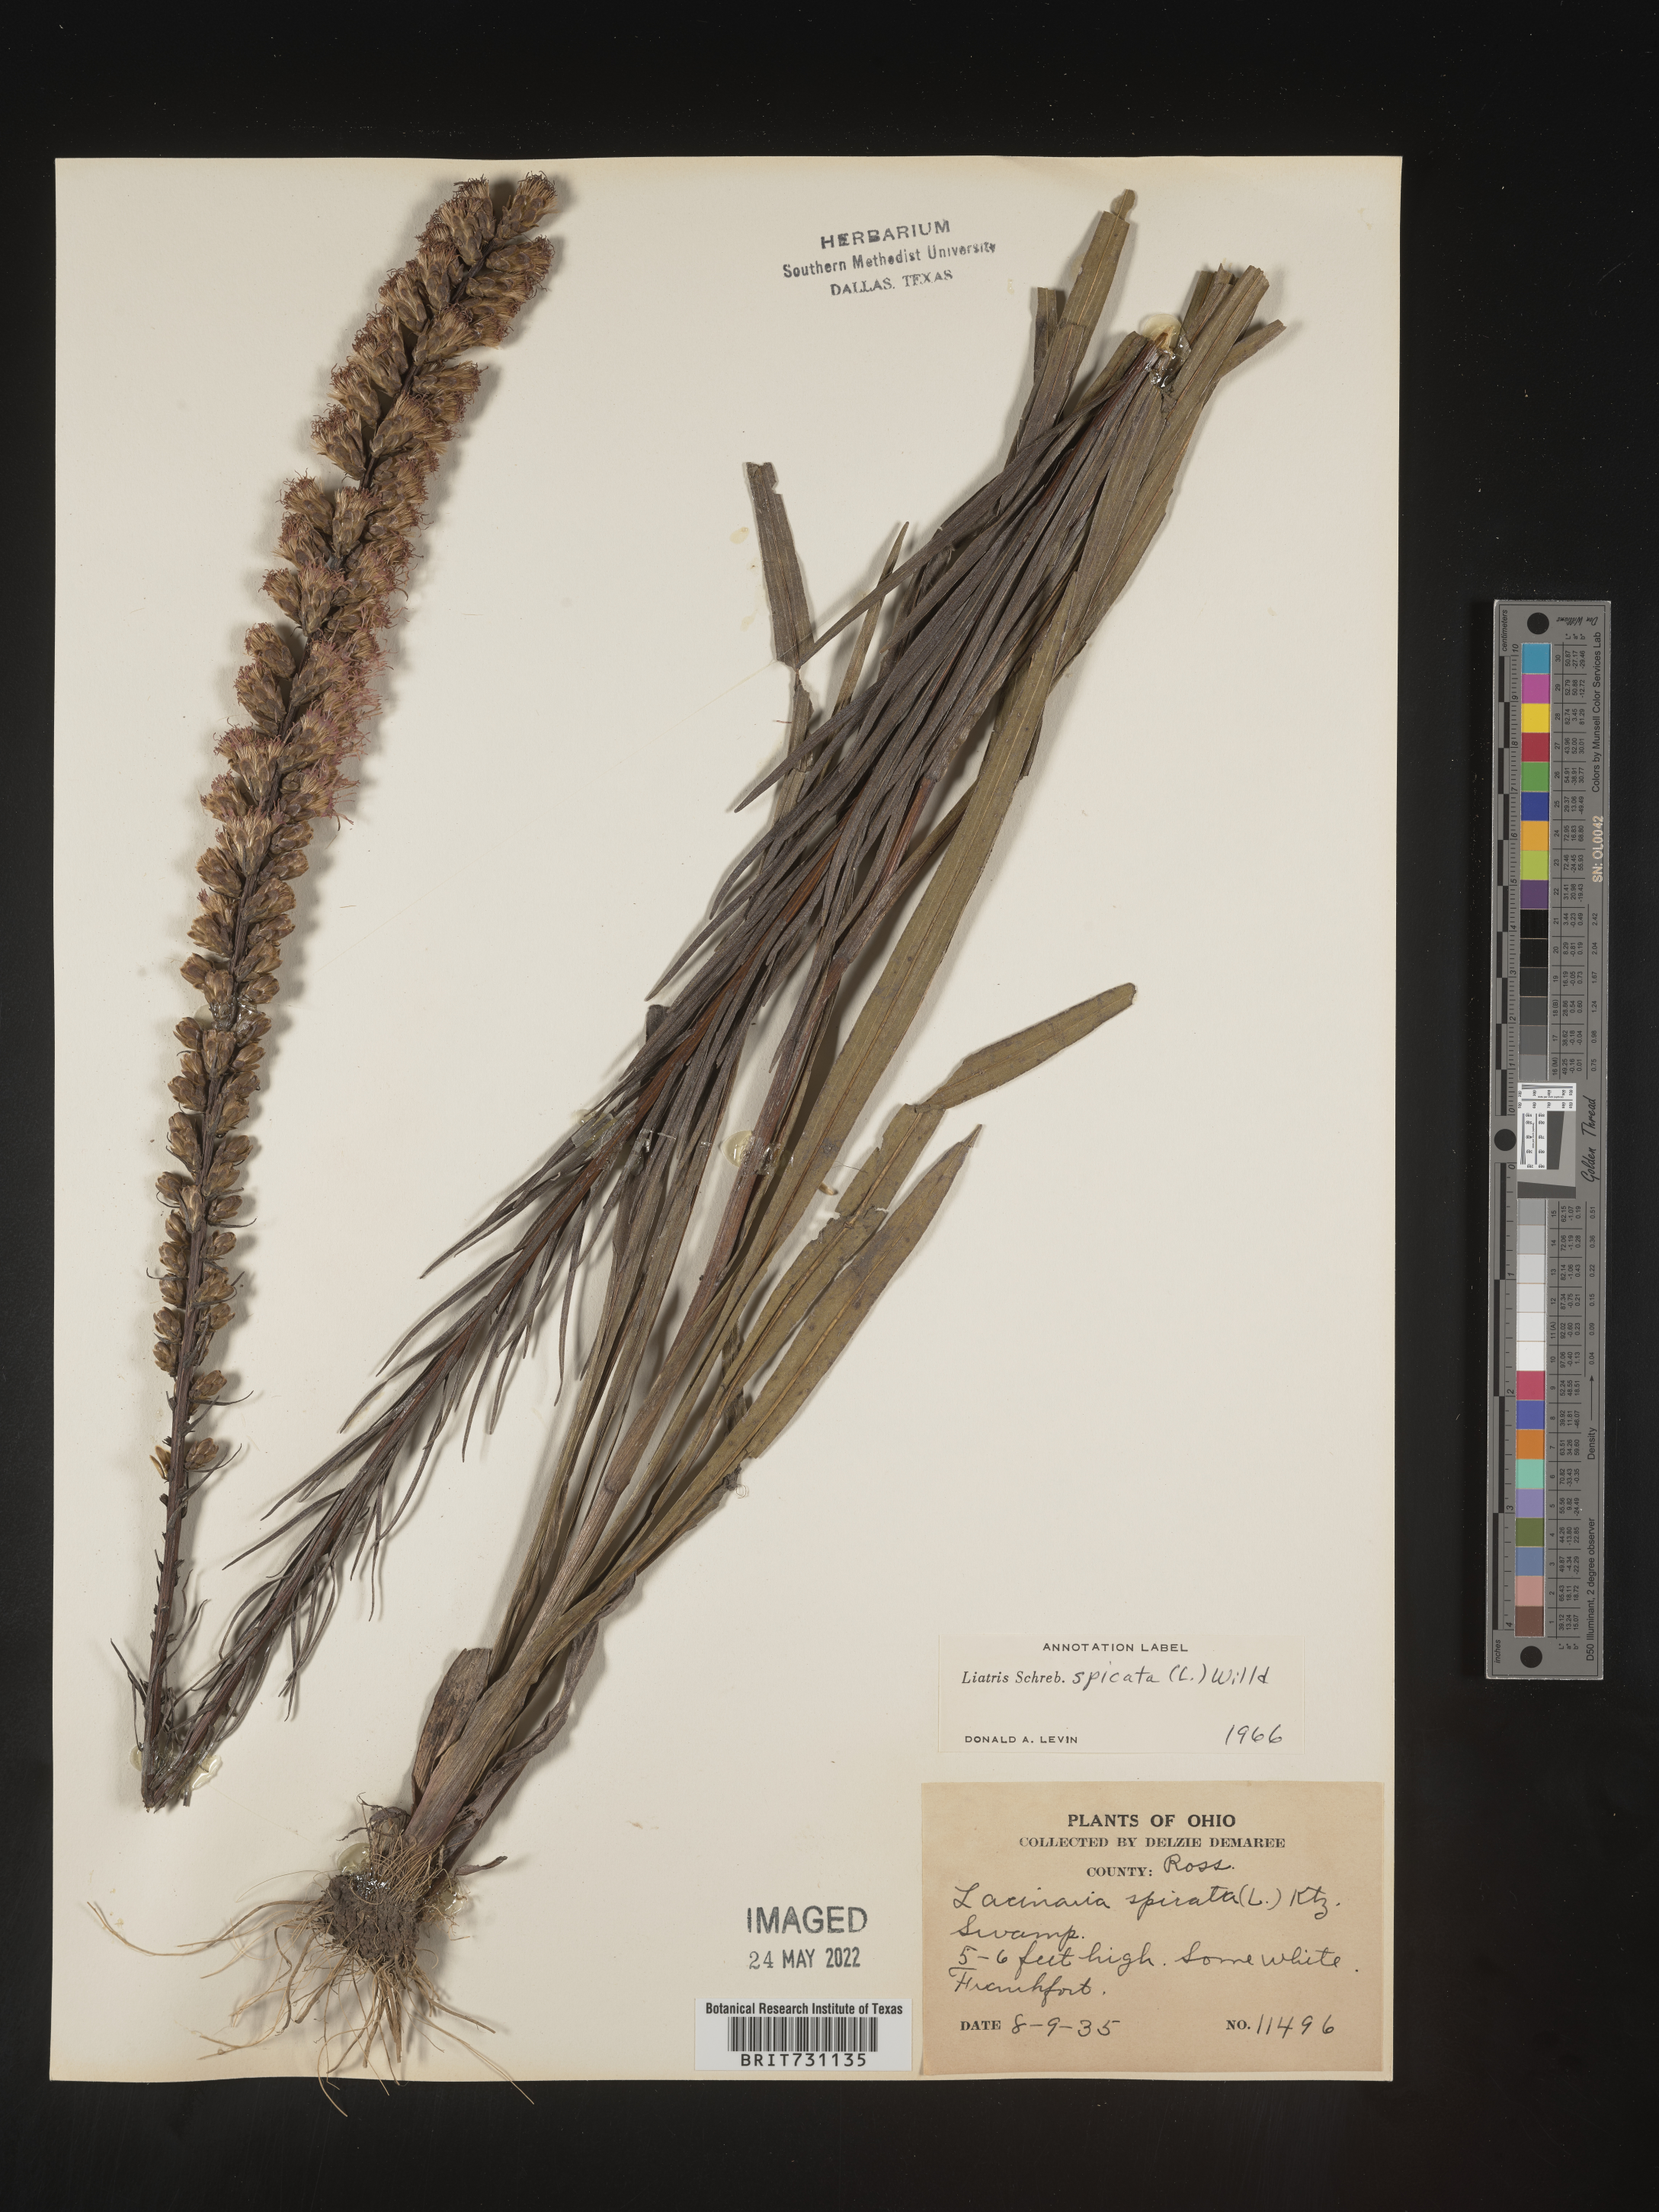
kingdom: Plantae
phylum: Tracheophyta
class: Magnoliopsida
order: Asterales
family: Asteraceae
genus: Liatris
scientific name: Liatris spicata
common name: Florist gayfeather
